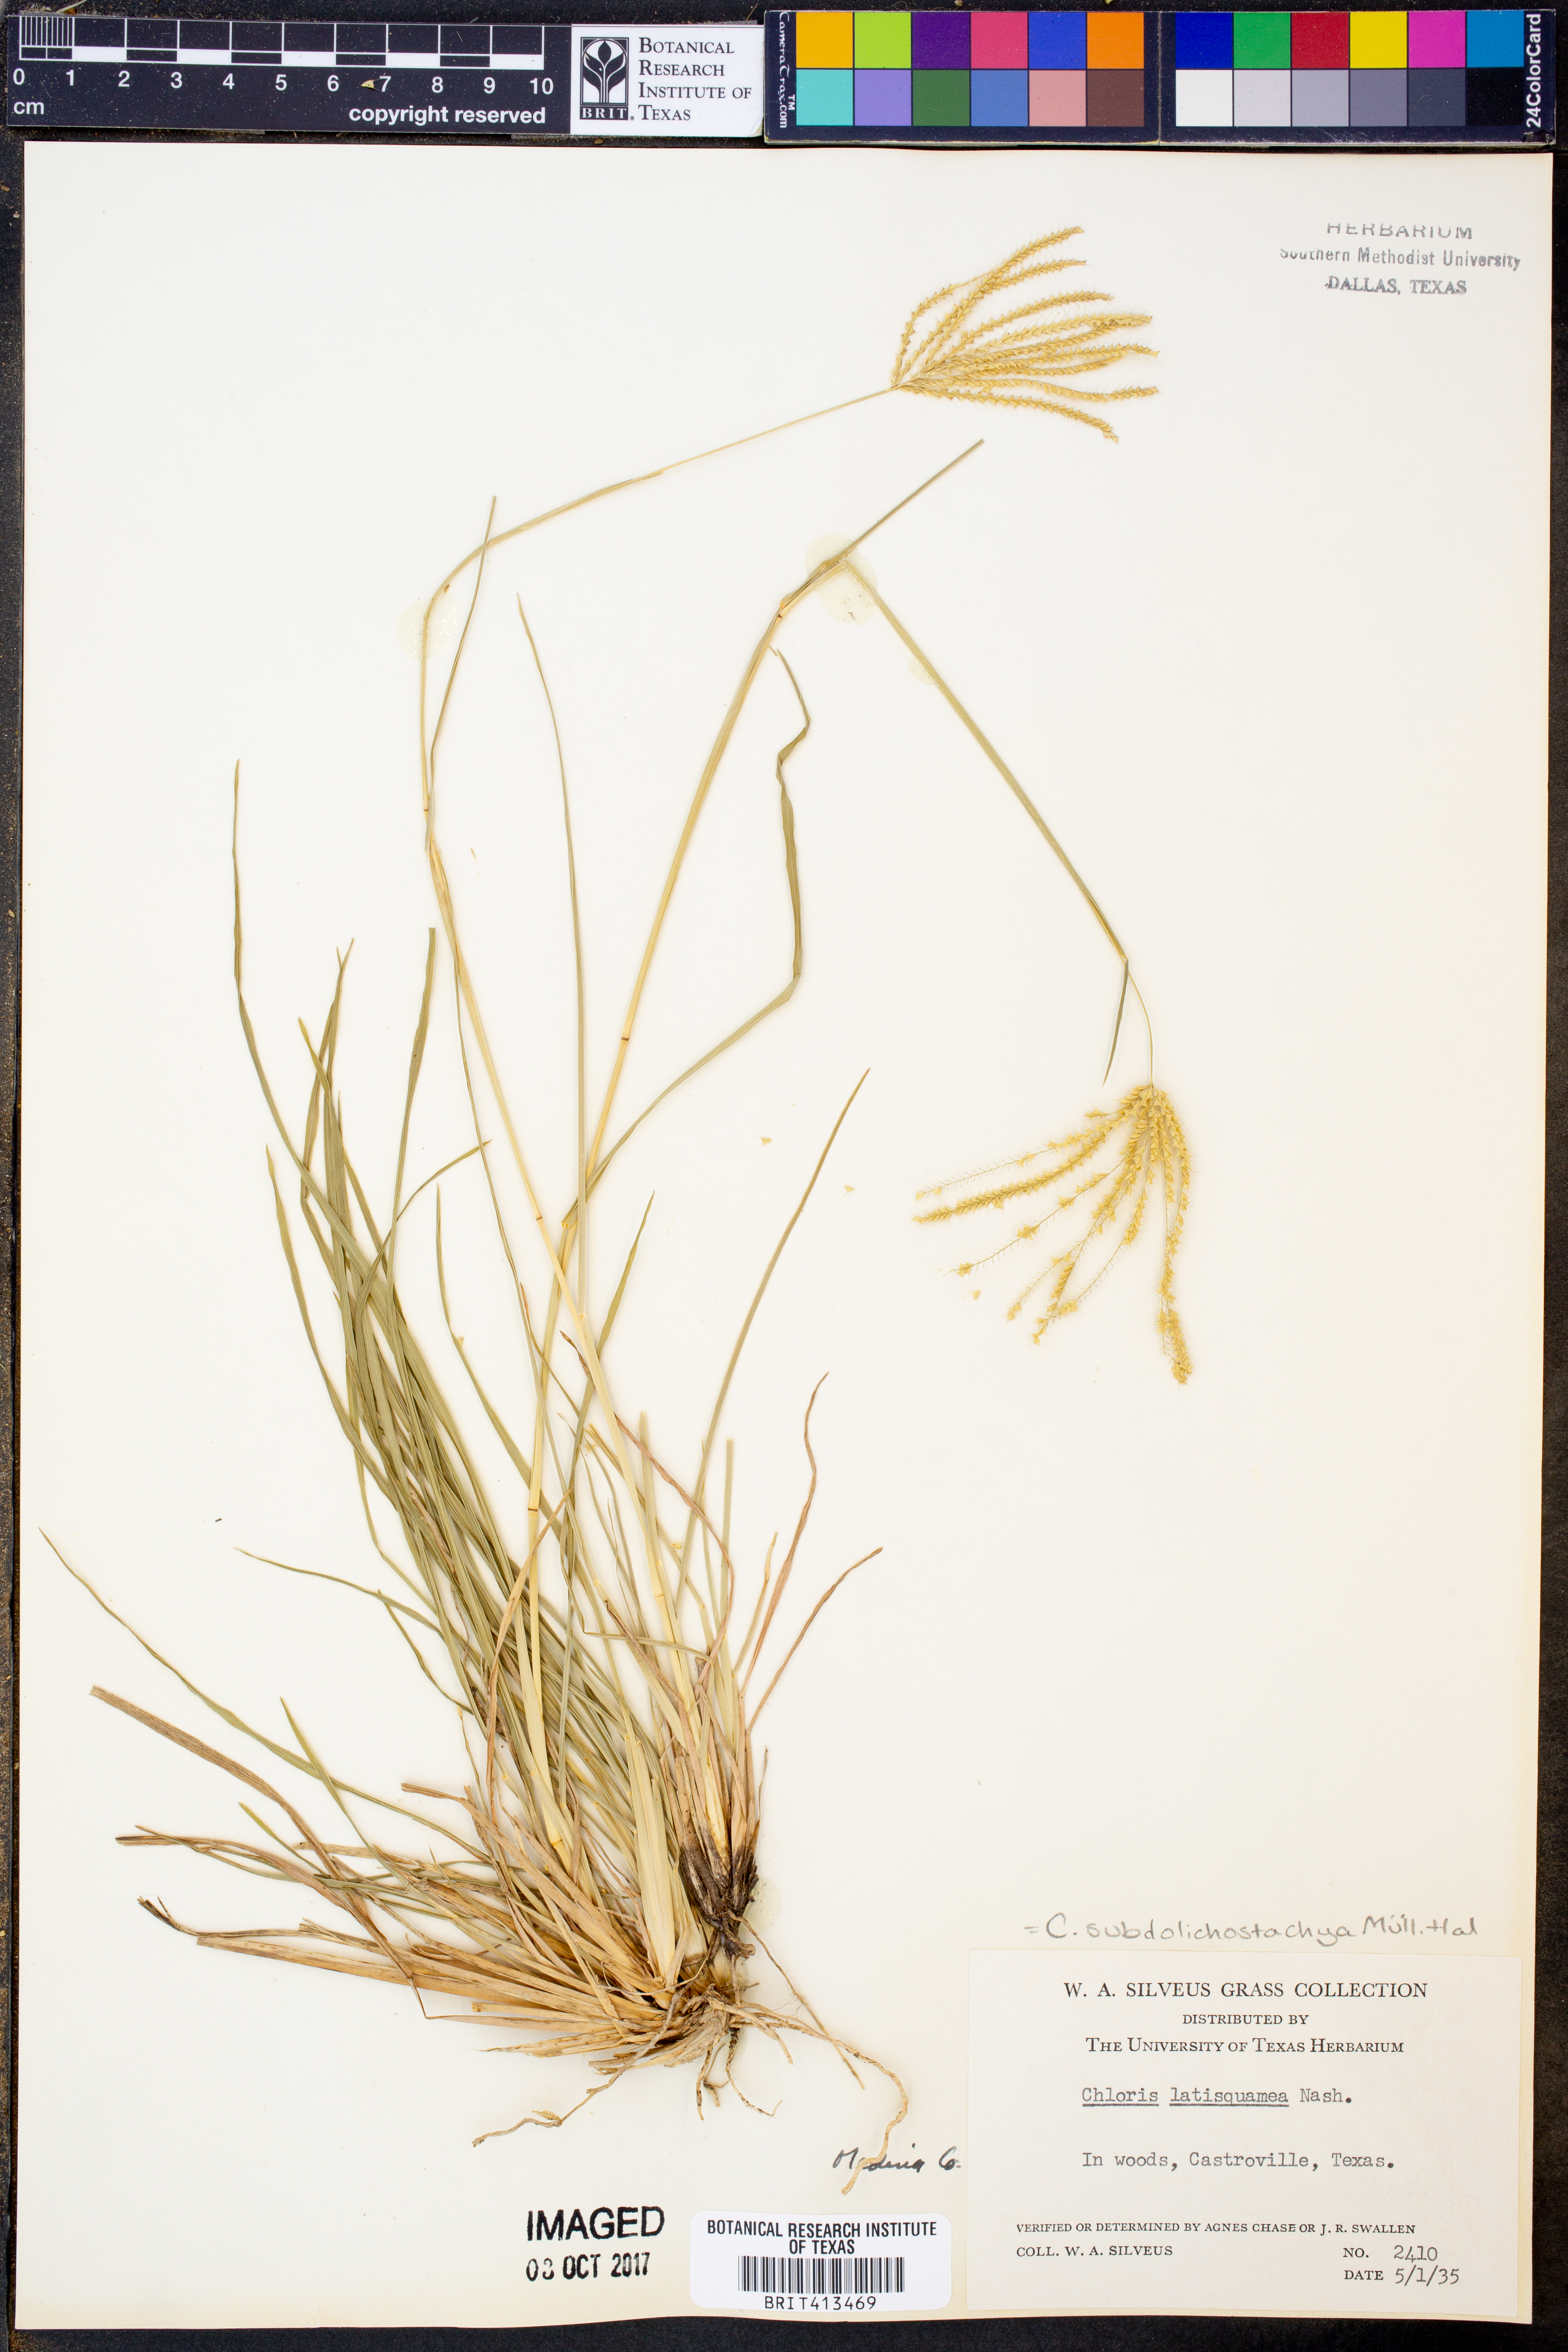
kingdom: Plantae
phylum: Tracheophyta
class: Liliopsida
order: Poales
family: Poaceae
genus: Chloris
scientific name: Chloris subdolichostachya
